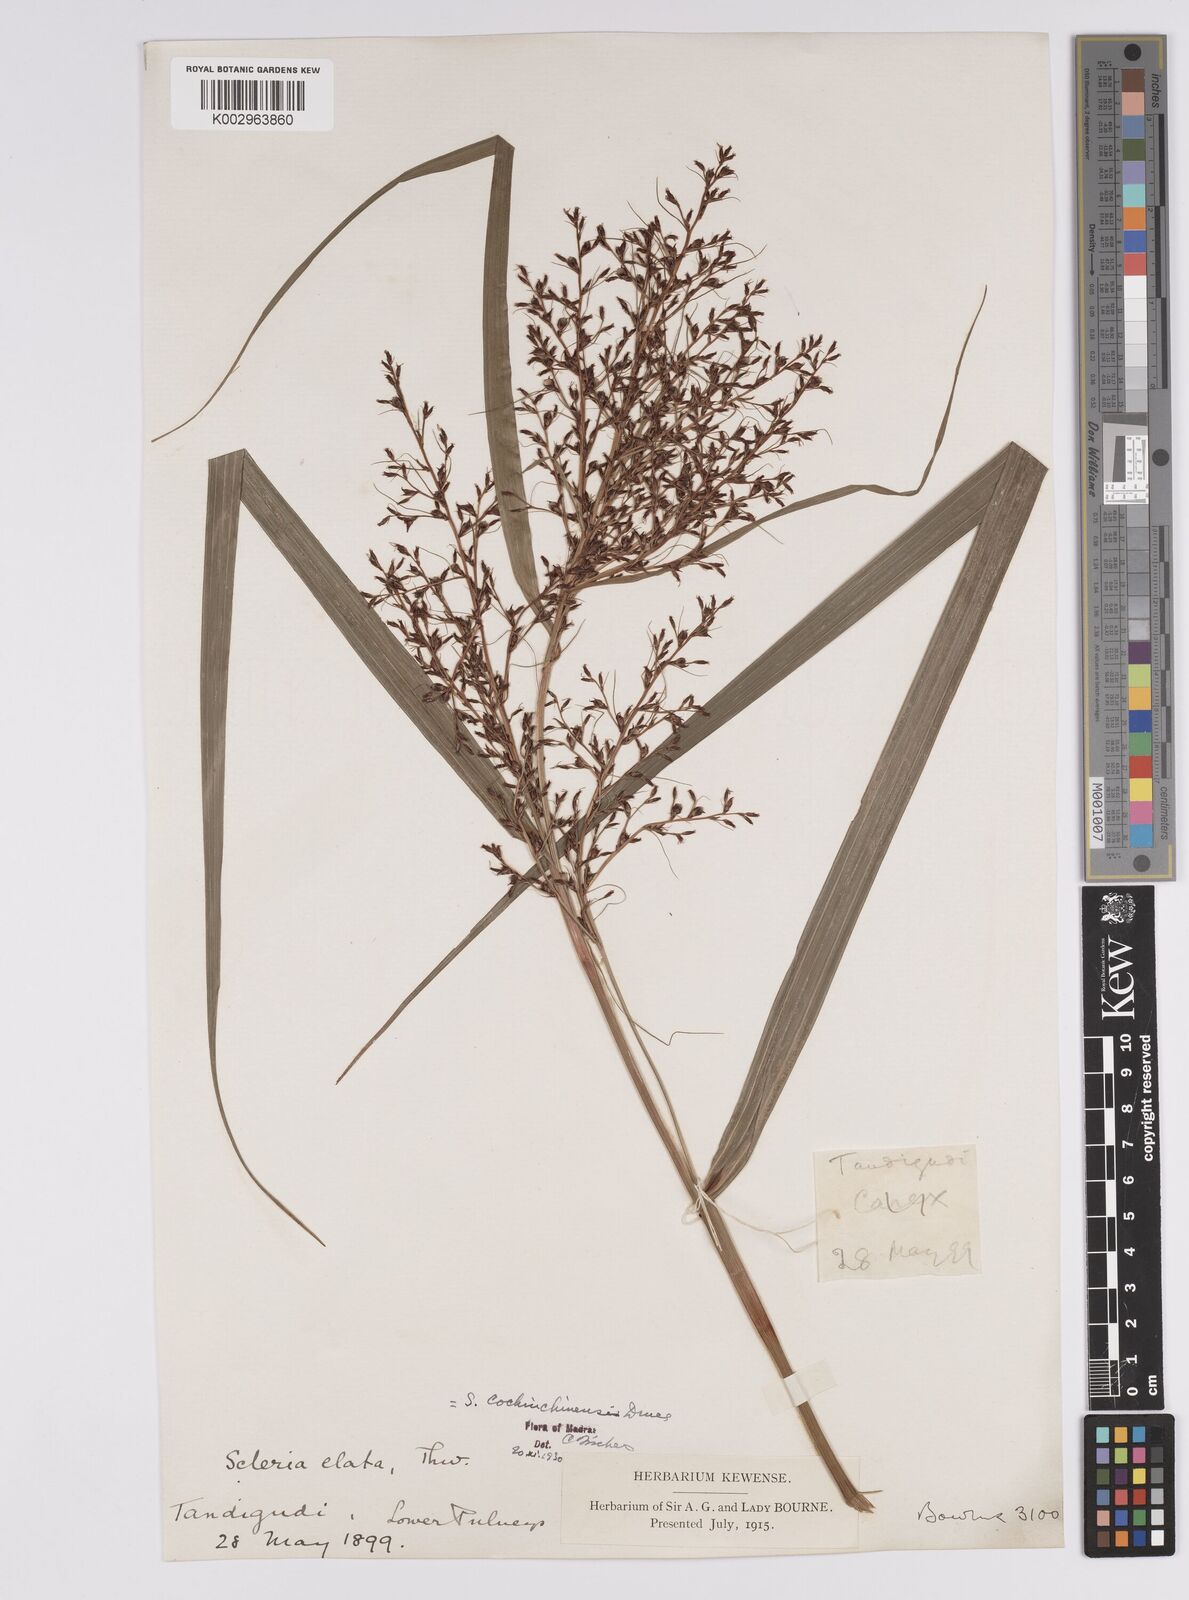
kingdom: Plantae
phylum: Tracheophyta
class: Liliopsida
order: Poales
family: Cyperaceae
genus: Scleria
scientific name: Scleria terrestris
